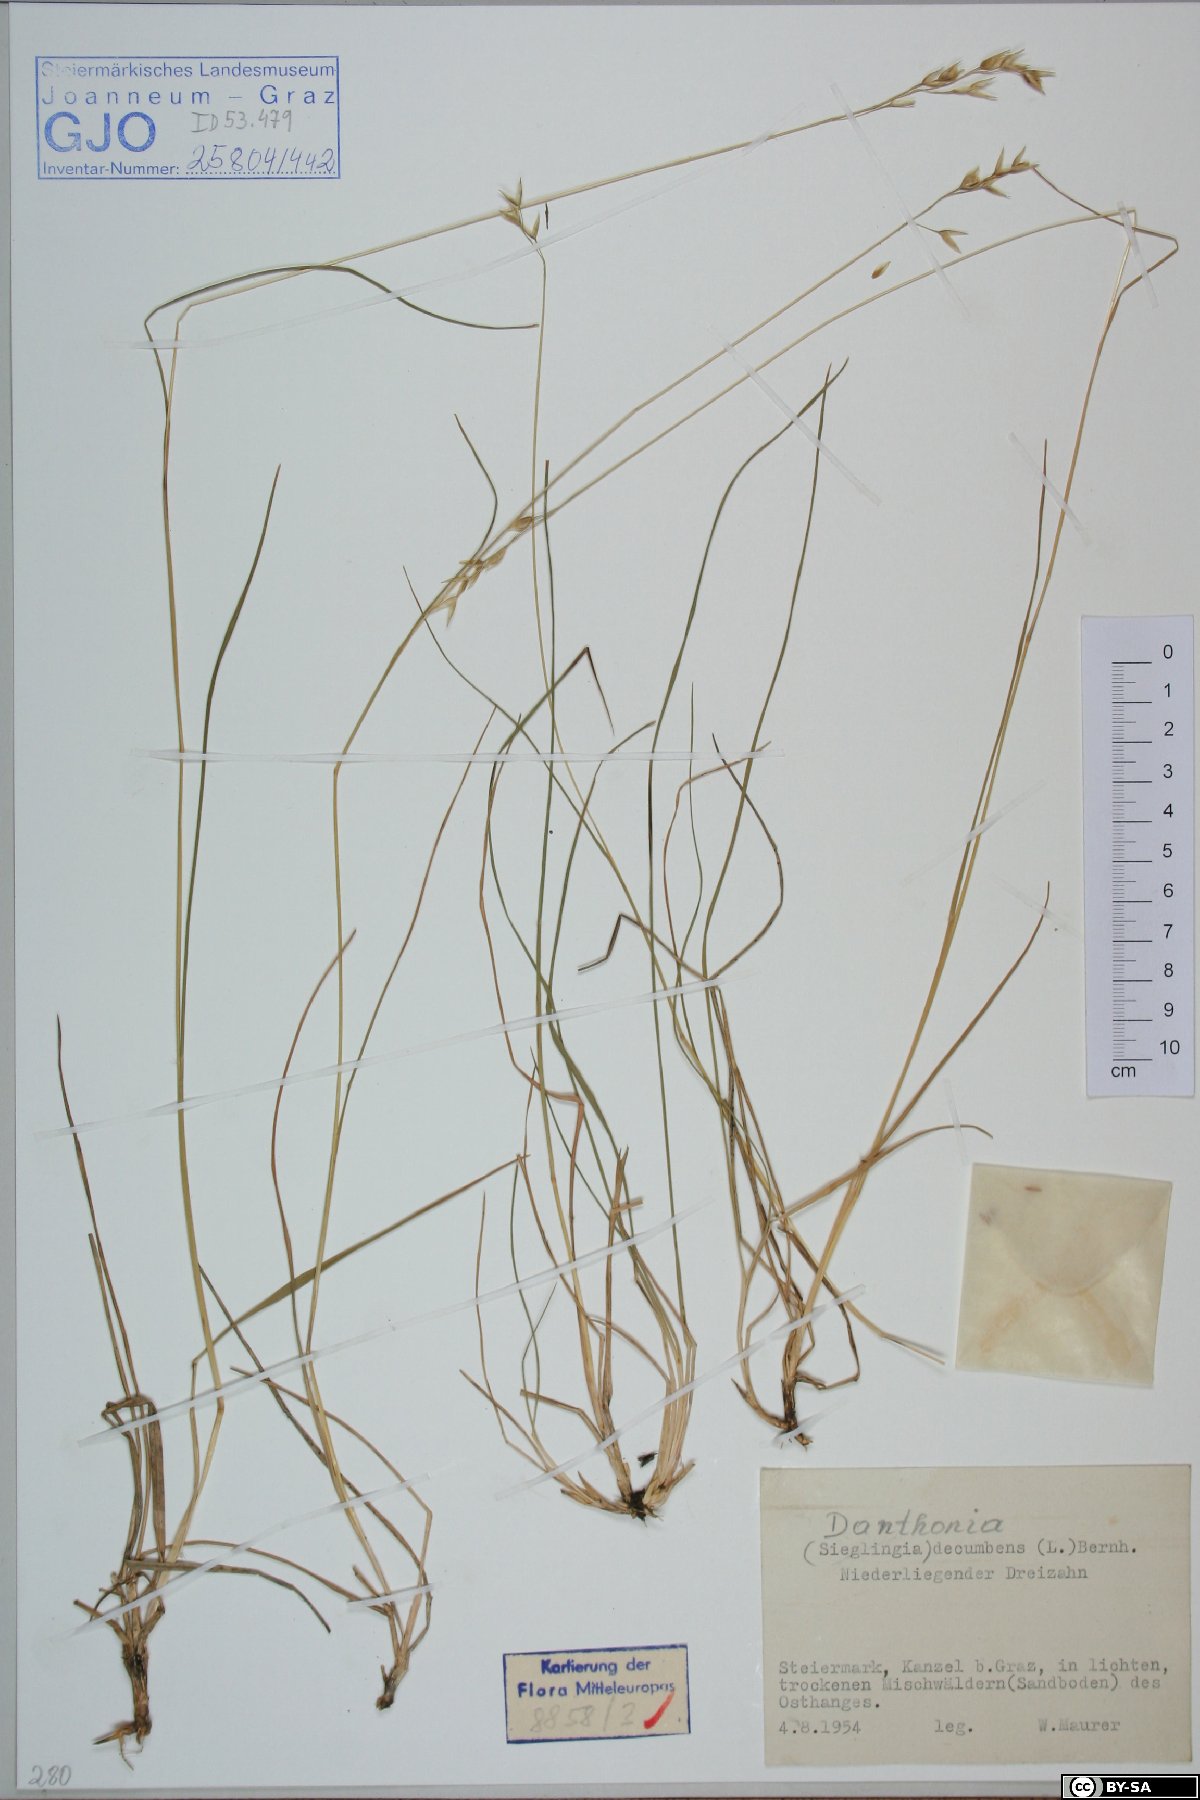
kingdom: Plantae
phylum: Tracheophyta
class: Liliopsida
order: Poales
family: Poaceae
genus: Danthonia
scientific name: Danthonia decumbens
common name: Common heathgrass
